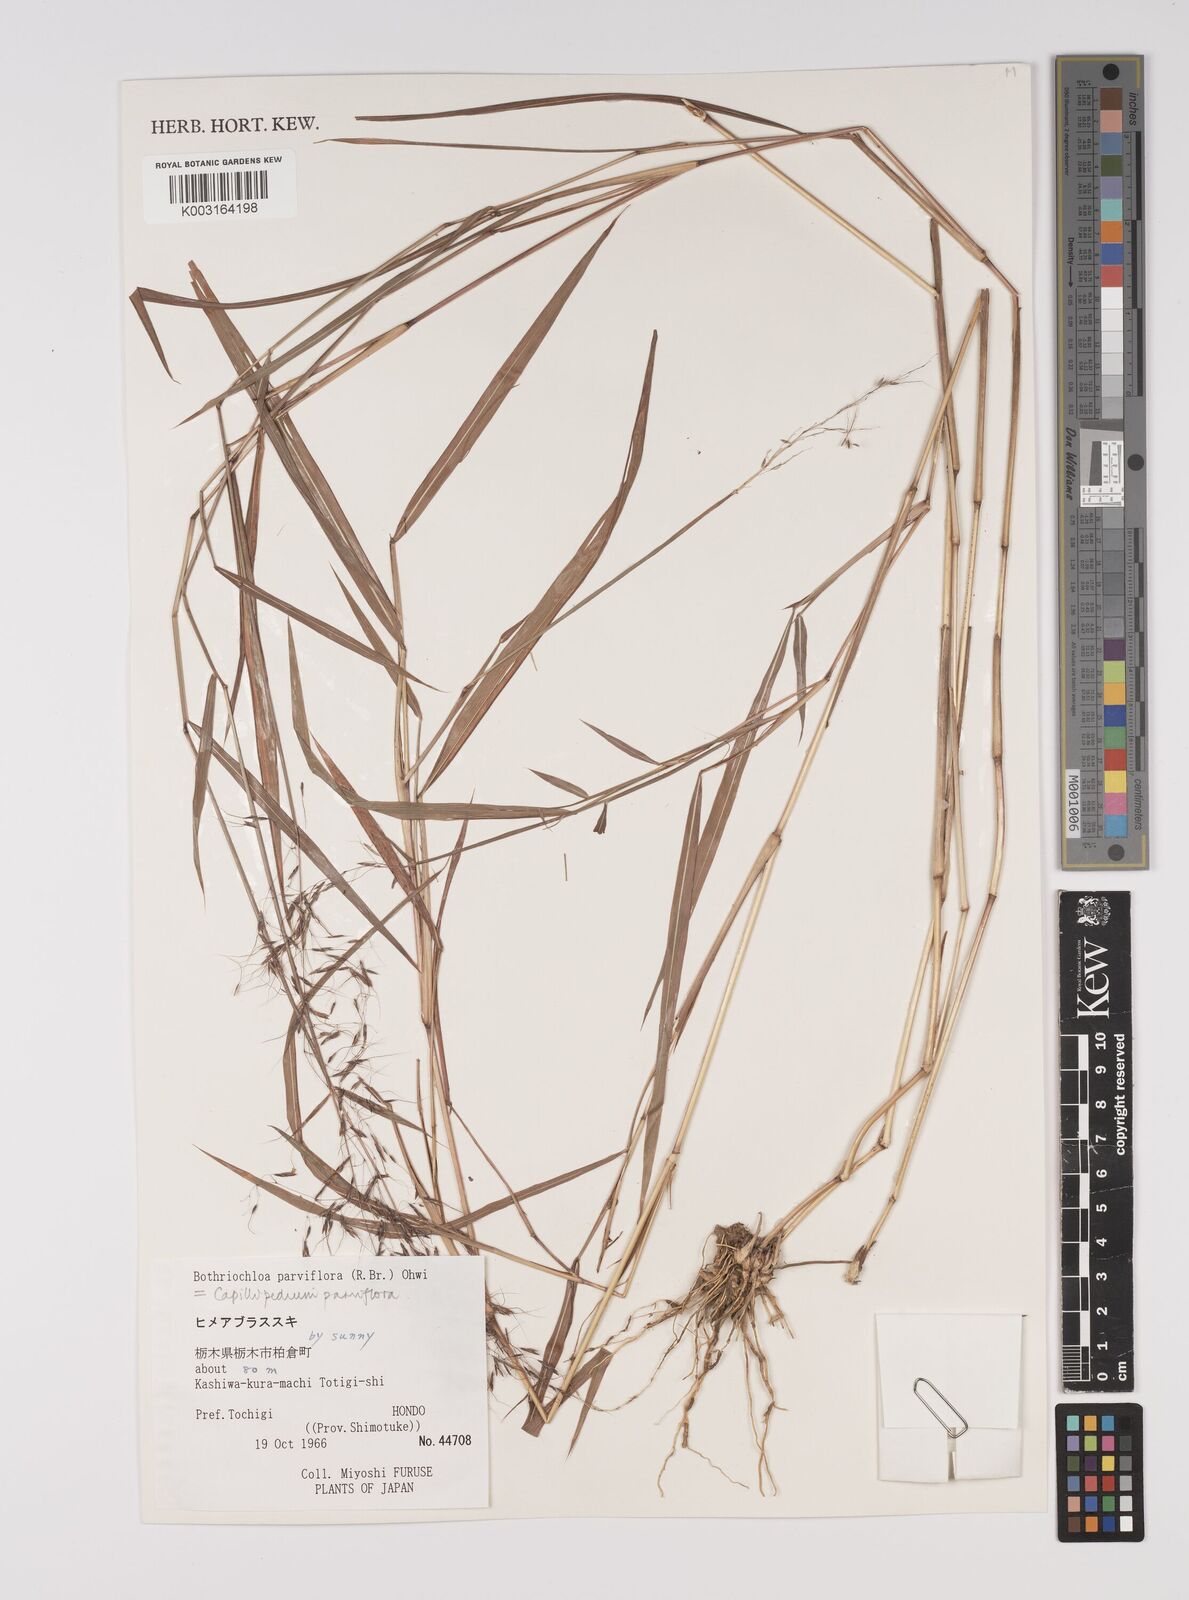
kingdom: Plantae
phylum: Tracheophyta
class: Liliopsida
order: Poales
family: Poaceae
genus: Capillipedium
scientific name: Capillipedium parviflorum
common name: Golden-beard
